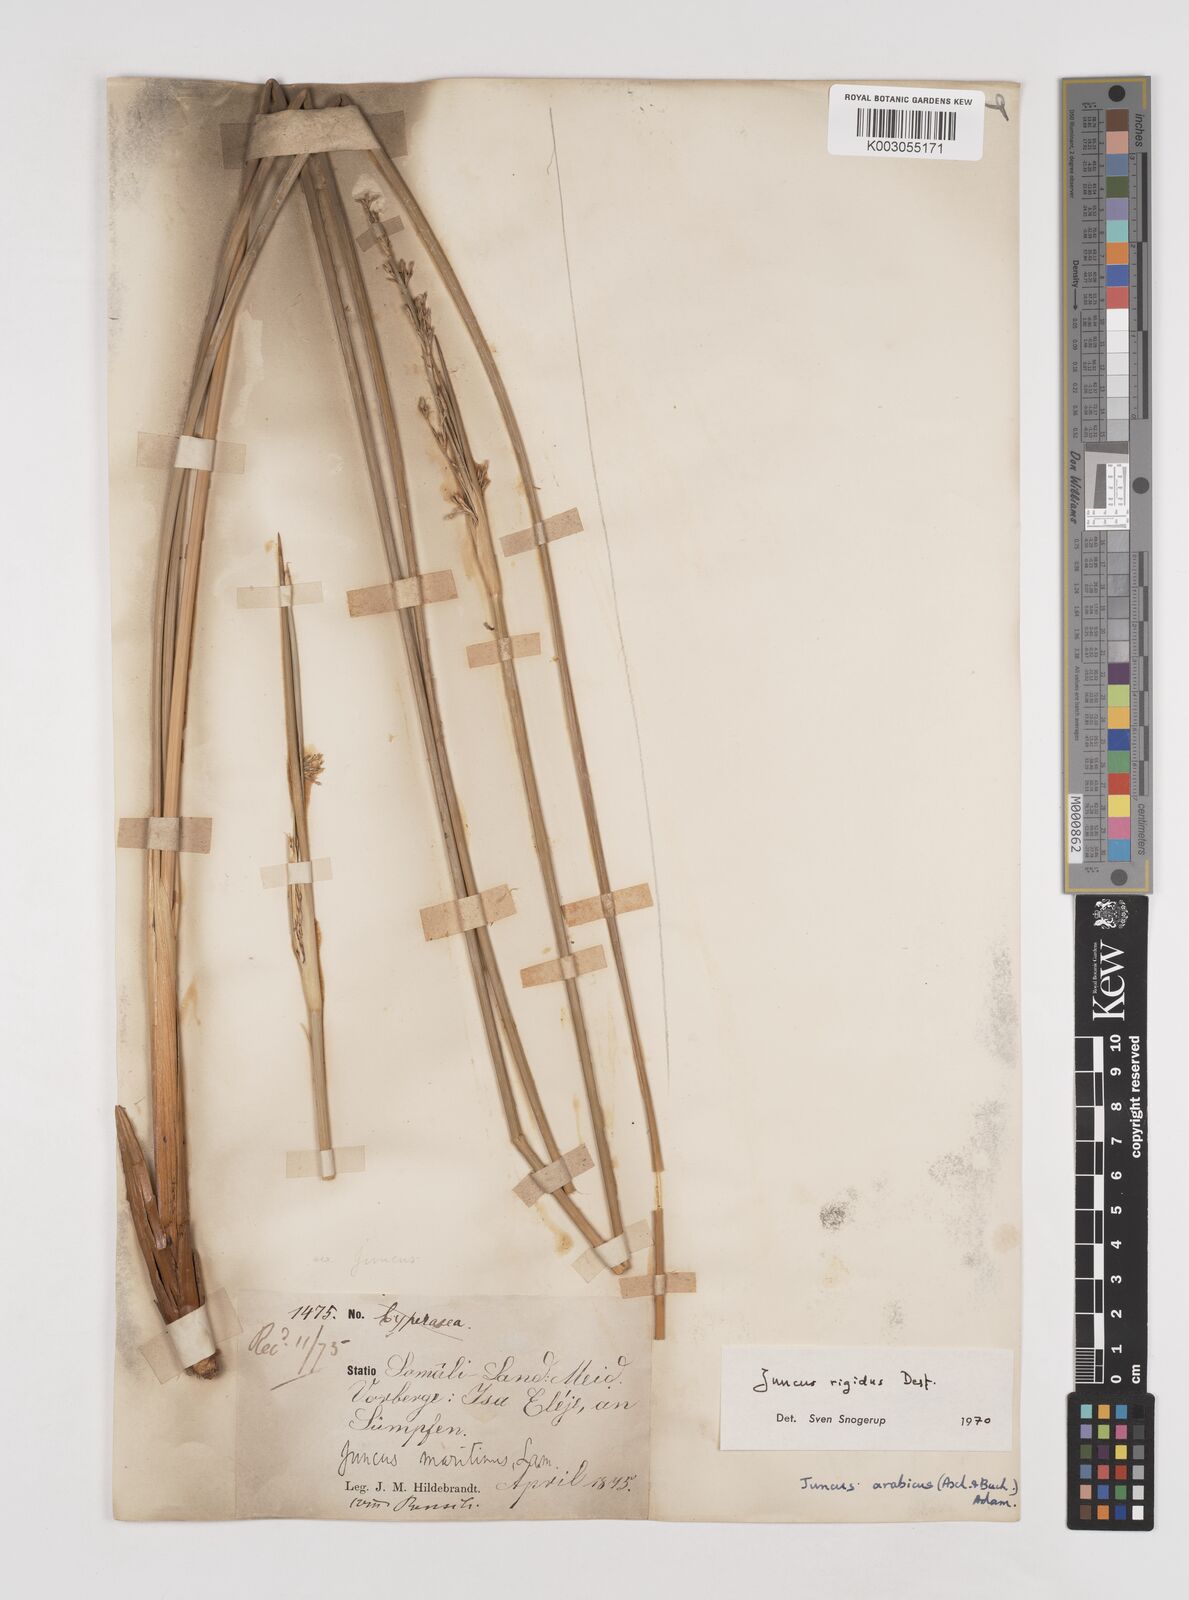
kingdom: Plantae
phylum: Tracheophyta
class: Liliopsida
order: Poales
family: Juncaceae
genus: Juncus
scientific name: Juncus rigidus
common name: Hard sea rush
